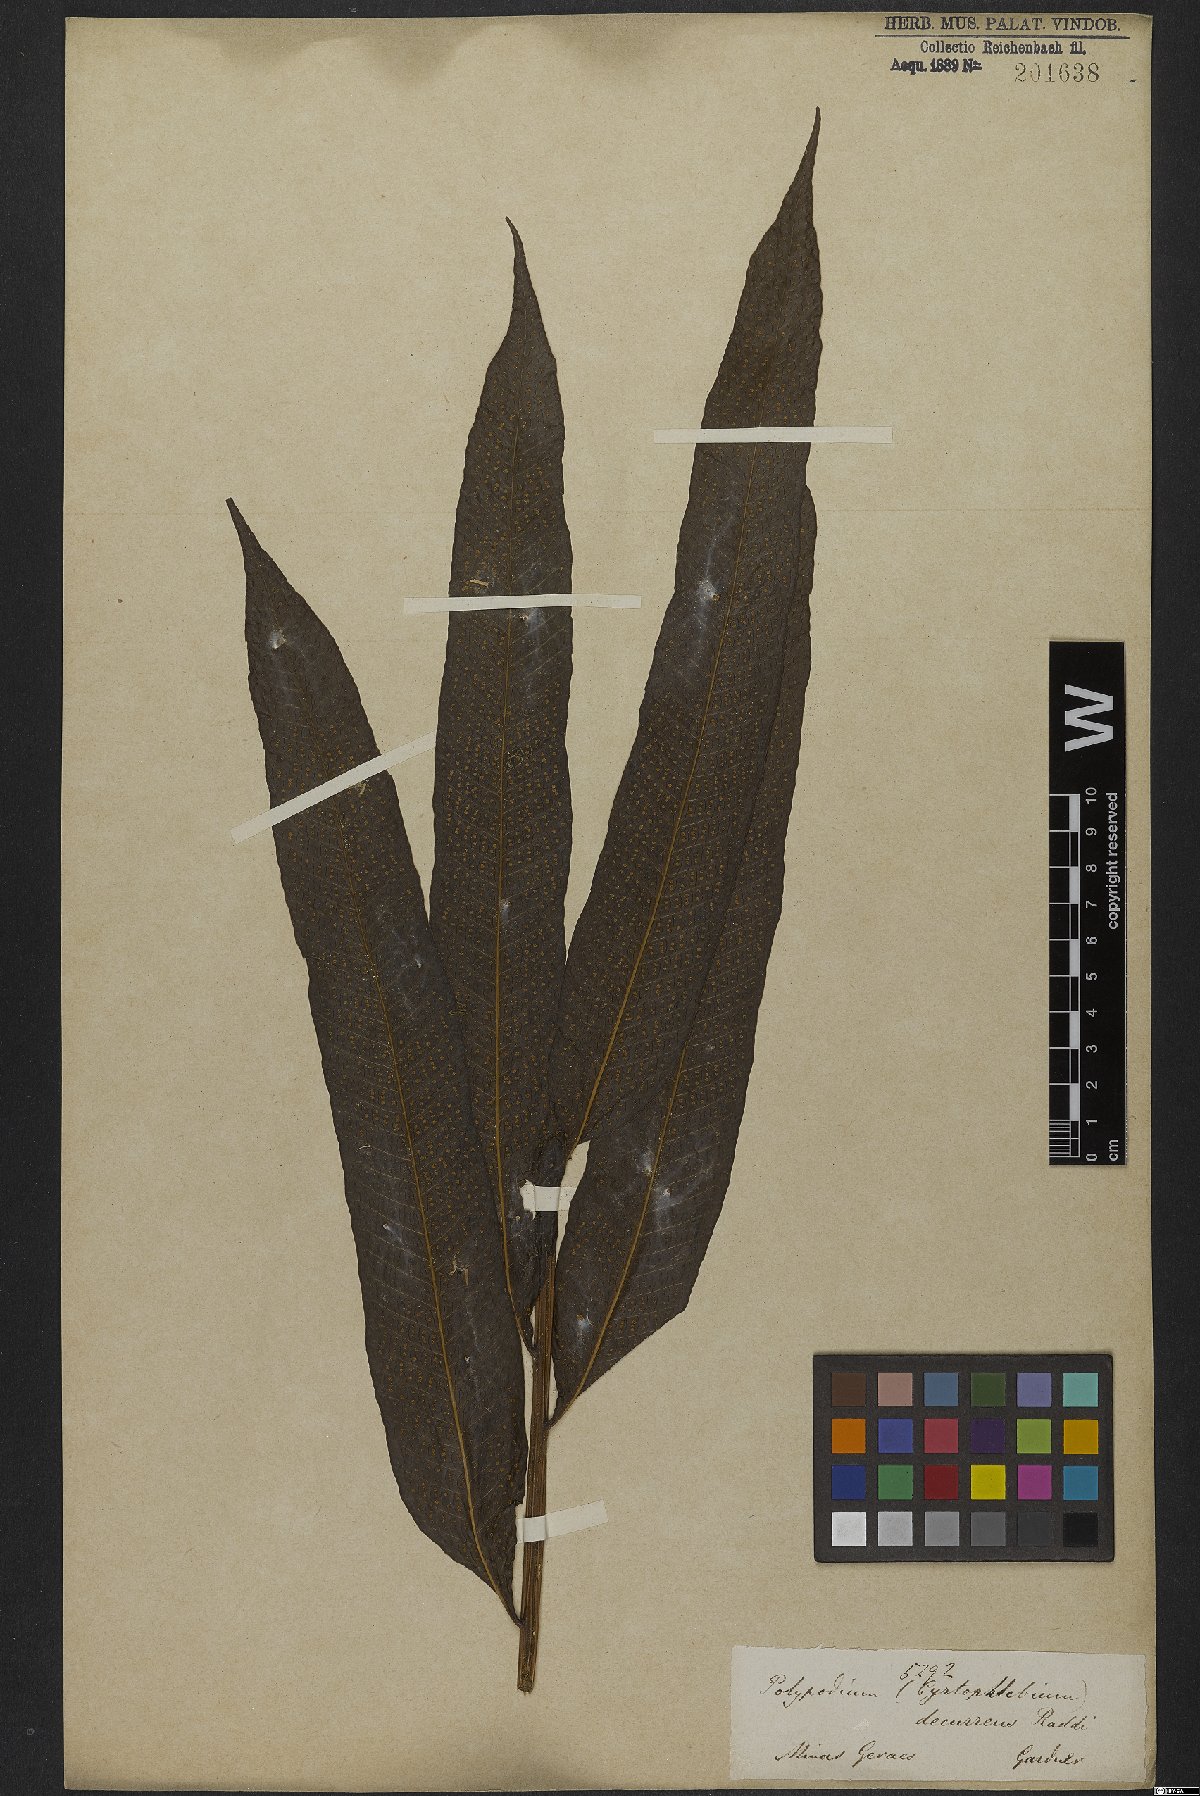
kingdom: Plantae
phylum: Tracheophyta
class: Polypodiopsida
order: Polypodiales
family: Polypodiaceae
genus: Campyloneurum
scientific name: Campyloneurum decurrens
